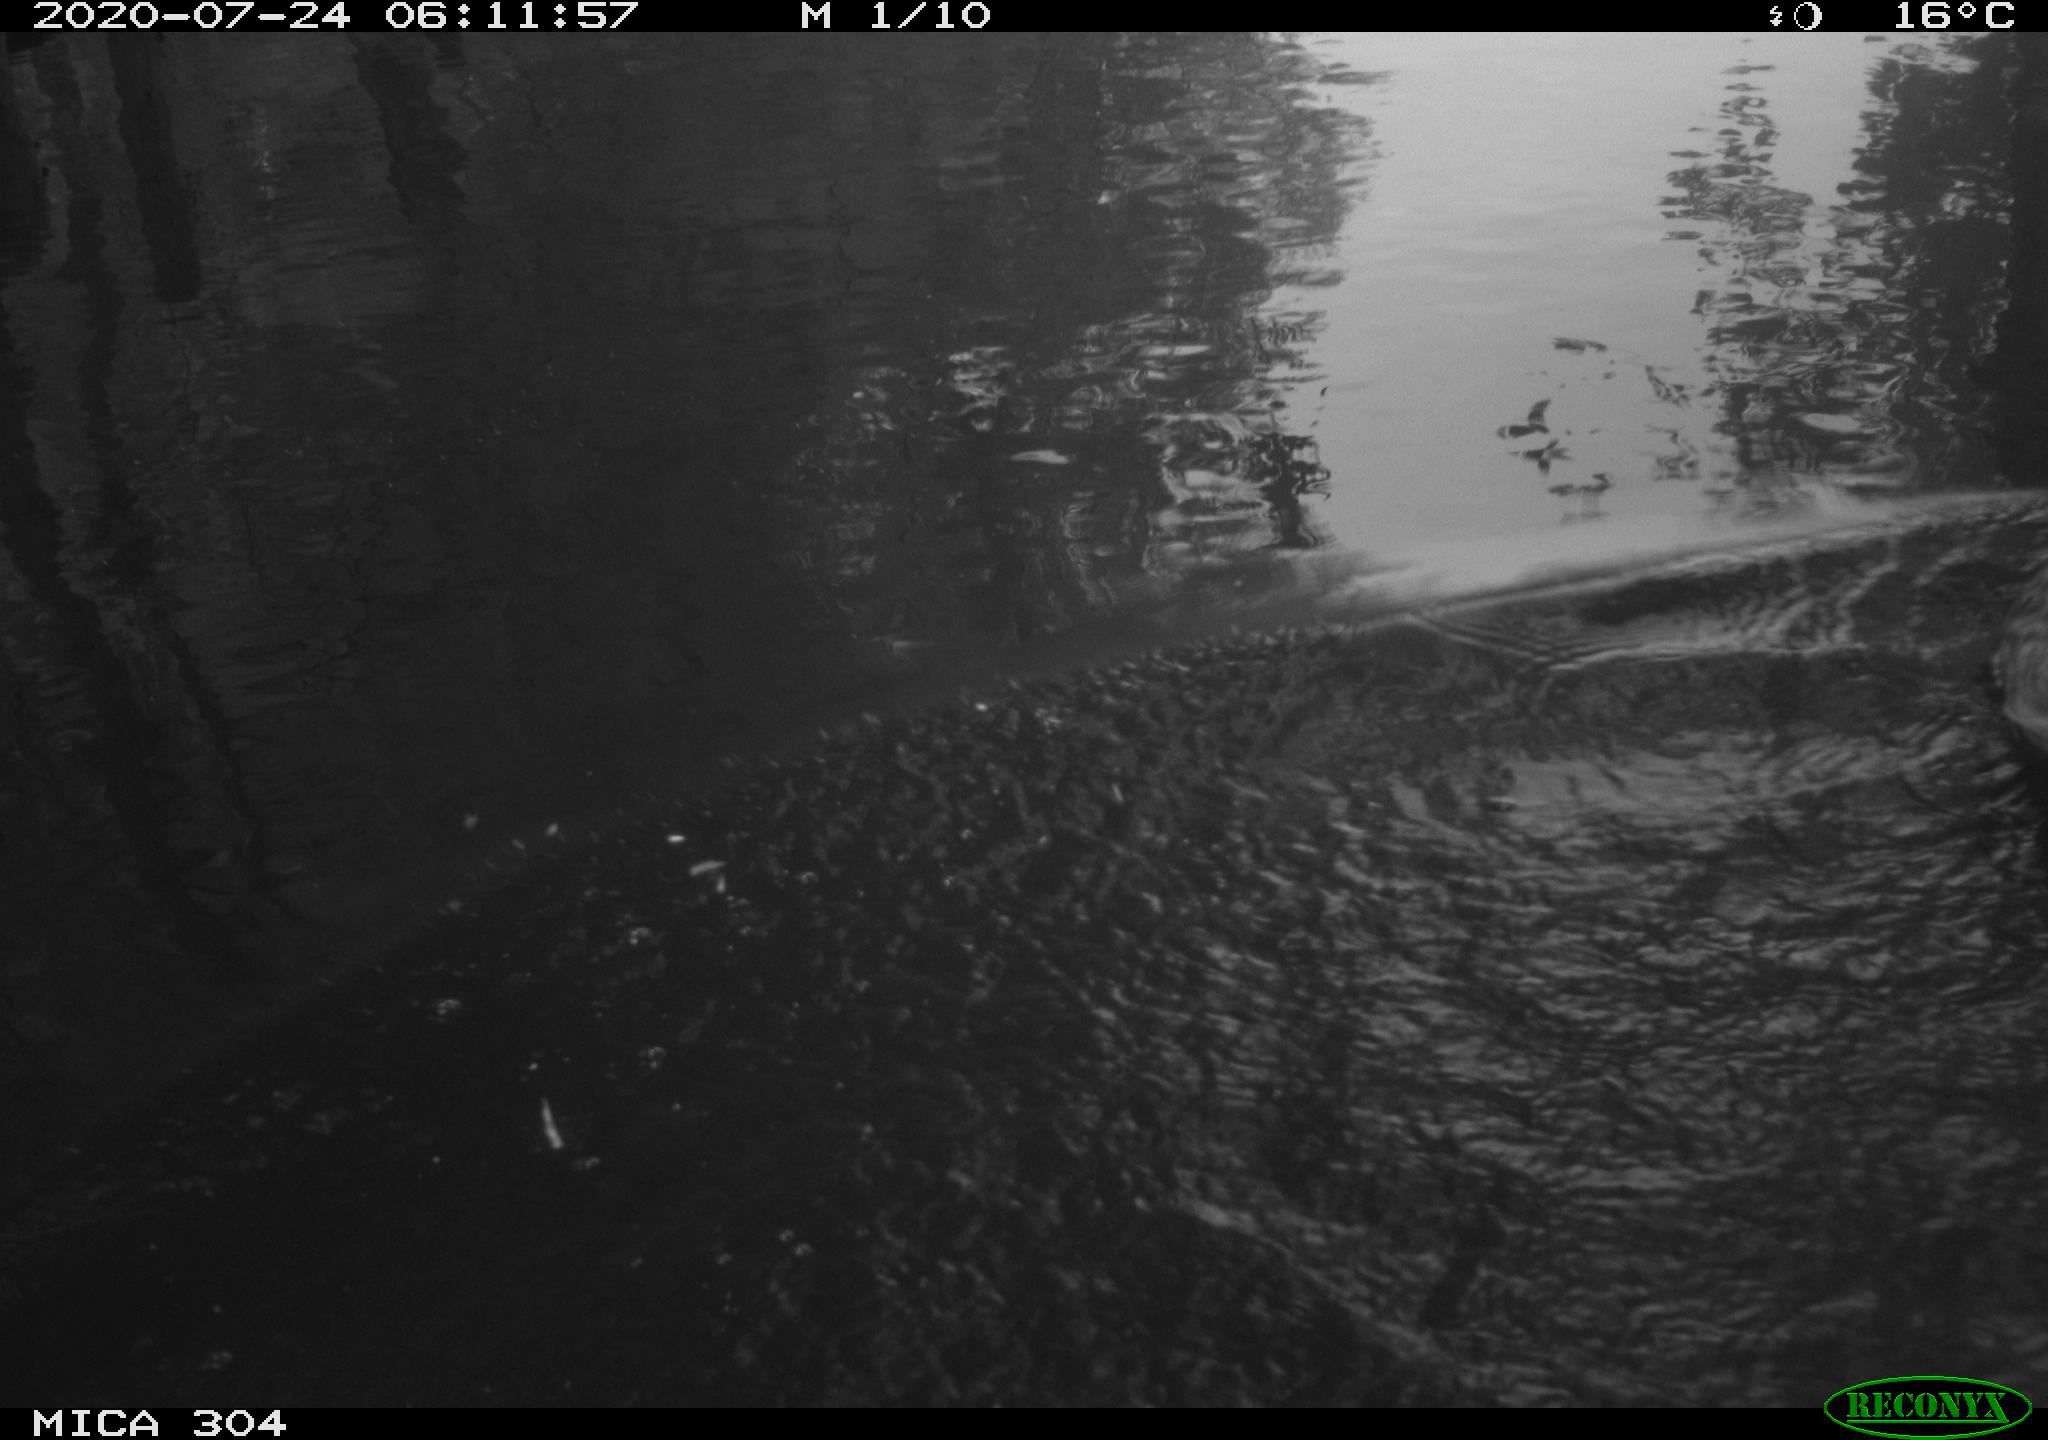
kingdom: Animalia
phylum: Chordata
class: Aves
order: Anseriformes
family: Anatidae
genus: Anas
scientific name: Anas platyrhynchos
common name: Mallard
